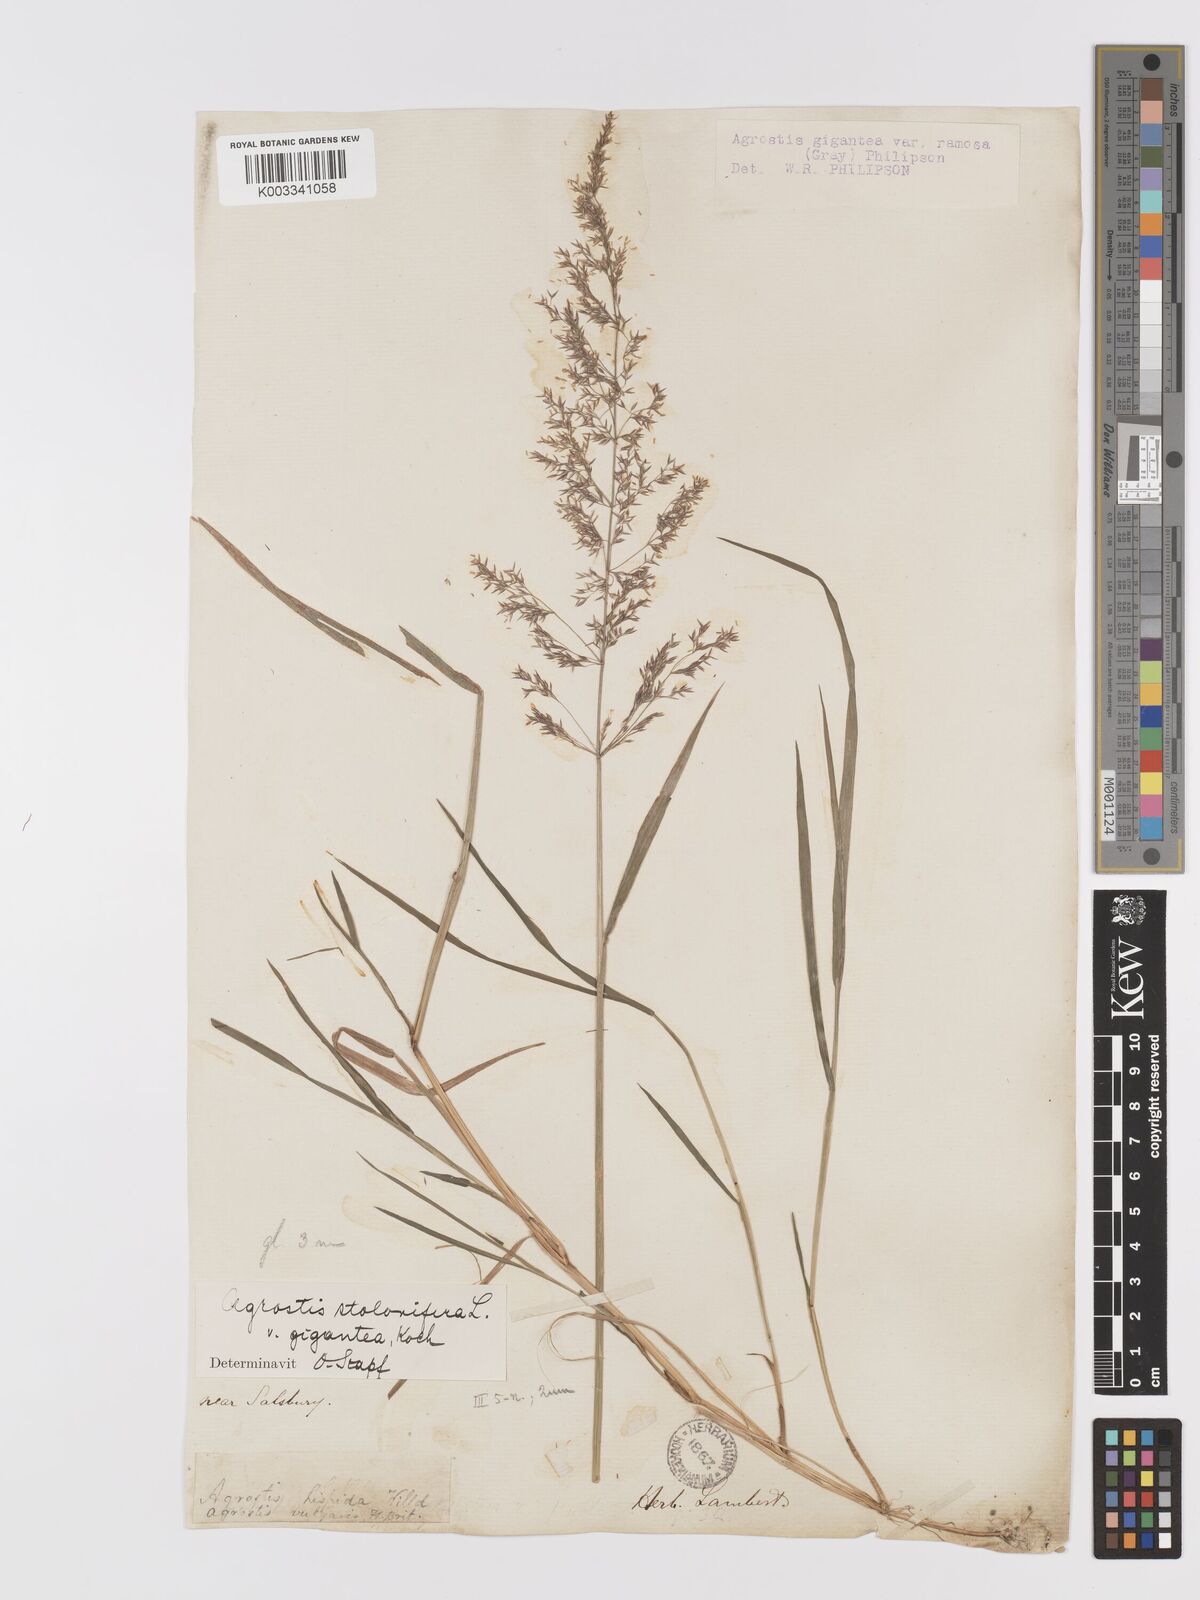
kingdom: Plantae
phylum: Tracheophyta
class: Liliopsida
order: Poales
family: Poaceae
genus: Agrostis
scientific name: Agrostis gigantea
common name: Black bent
